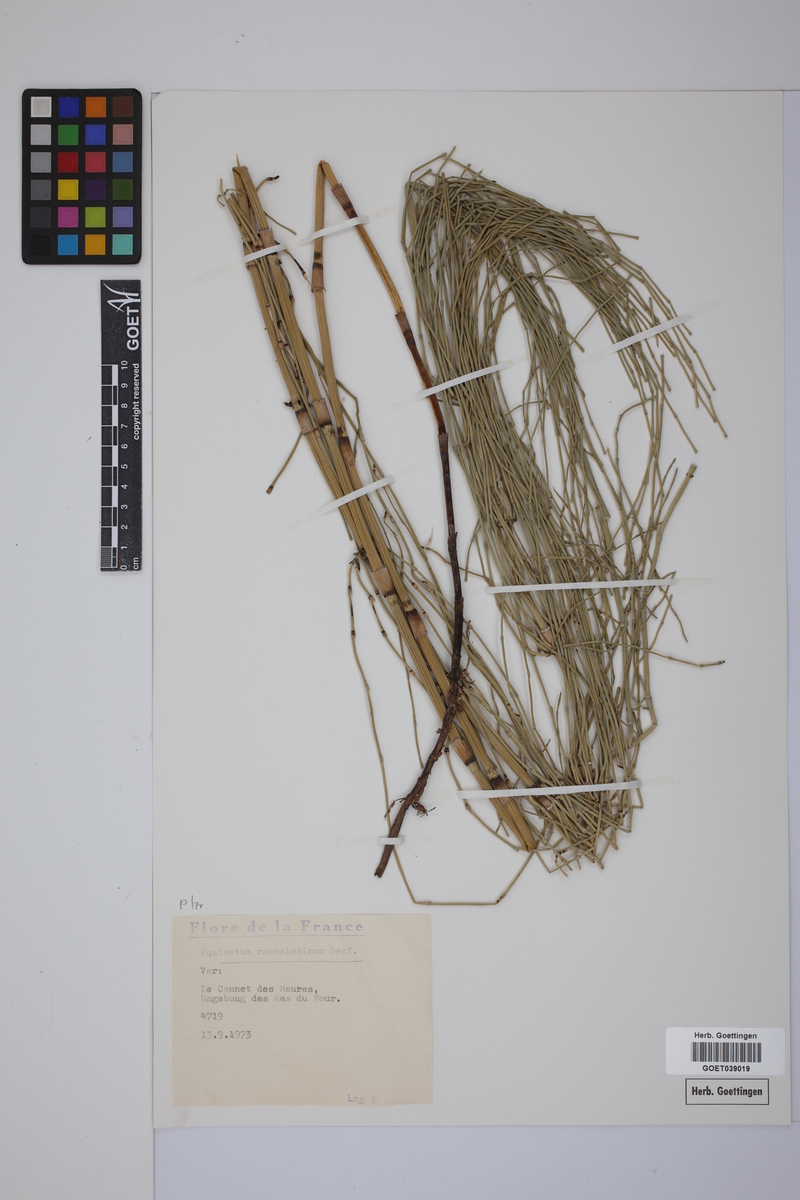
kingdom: Plantae
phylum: Tracheophyta
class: Polypodiopsida
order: Equisetales
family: Equisetaceae
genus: Equisetum
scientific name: Equisetum giganteum
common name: Giant horsetail
